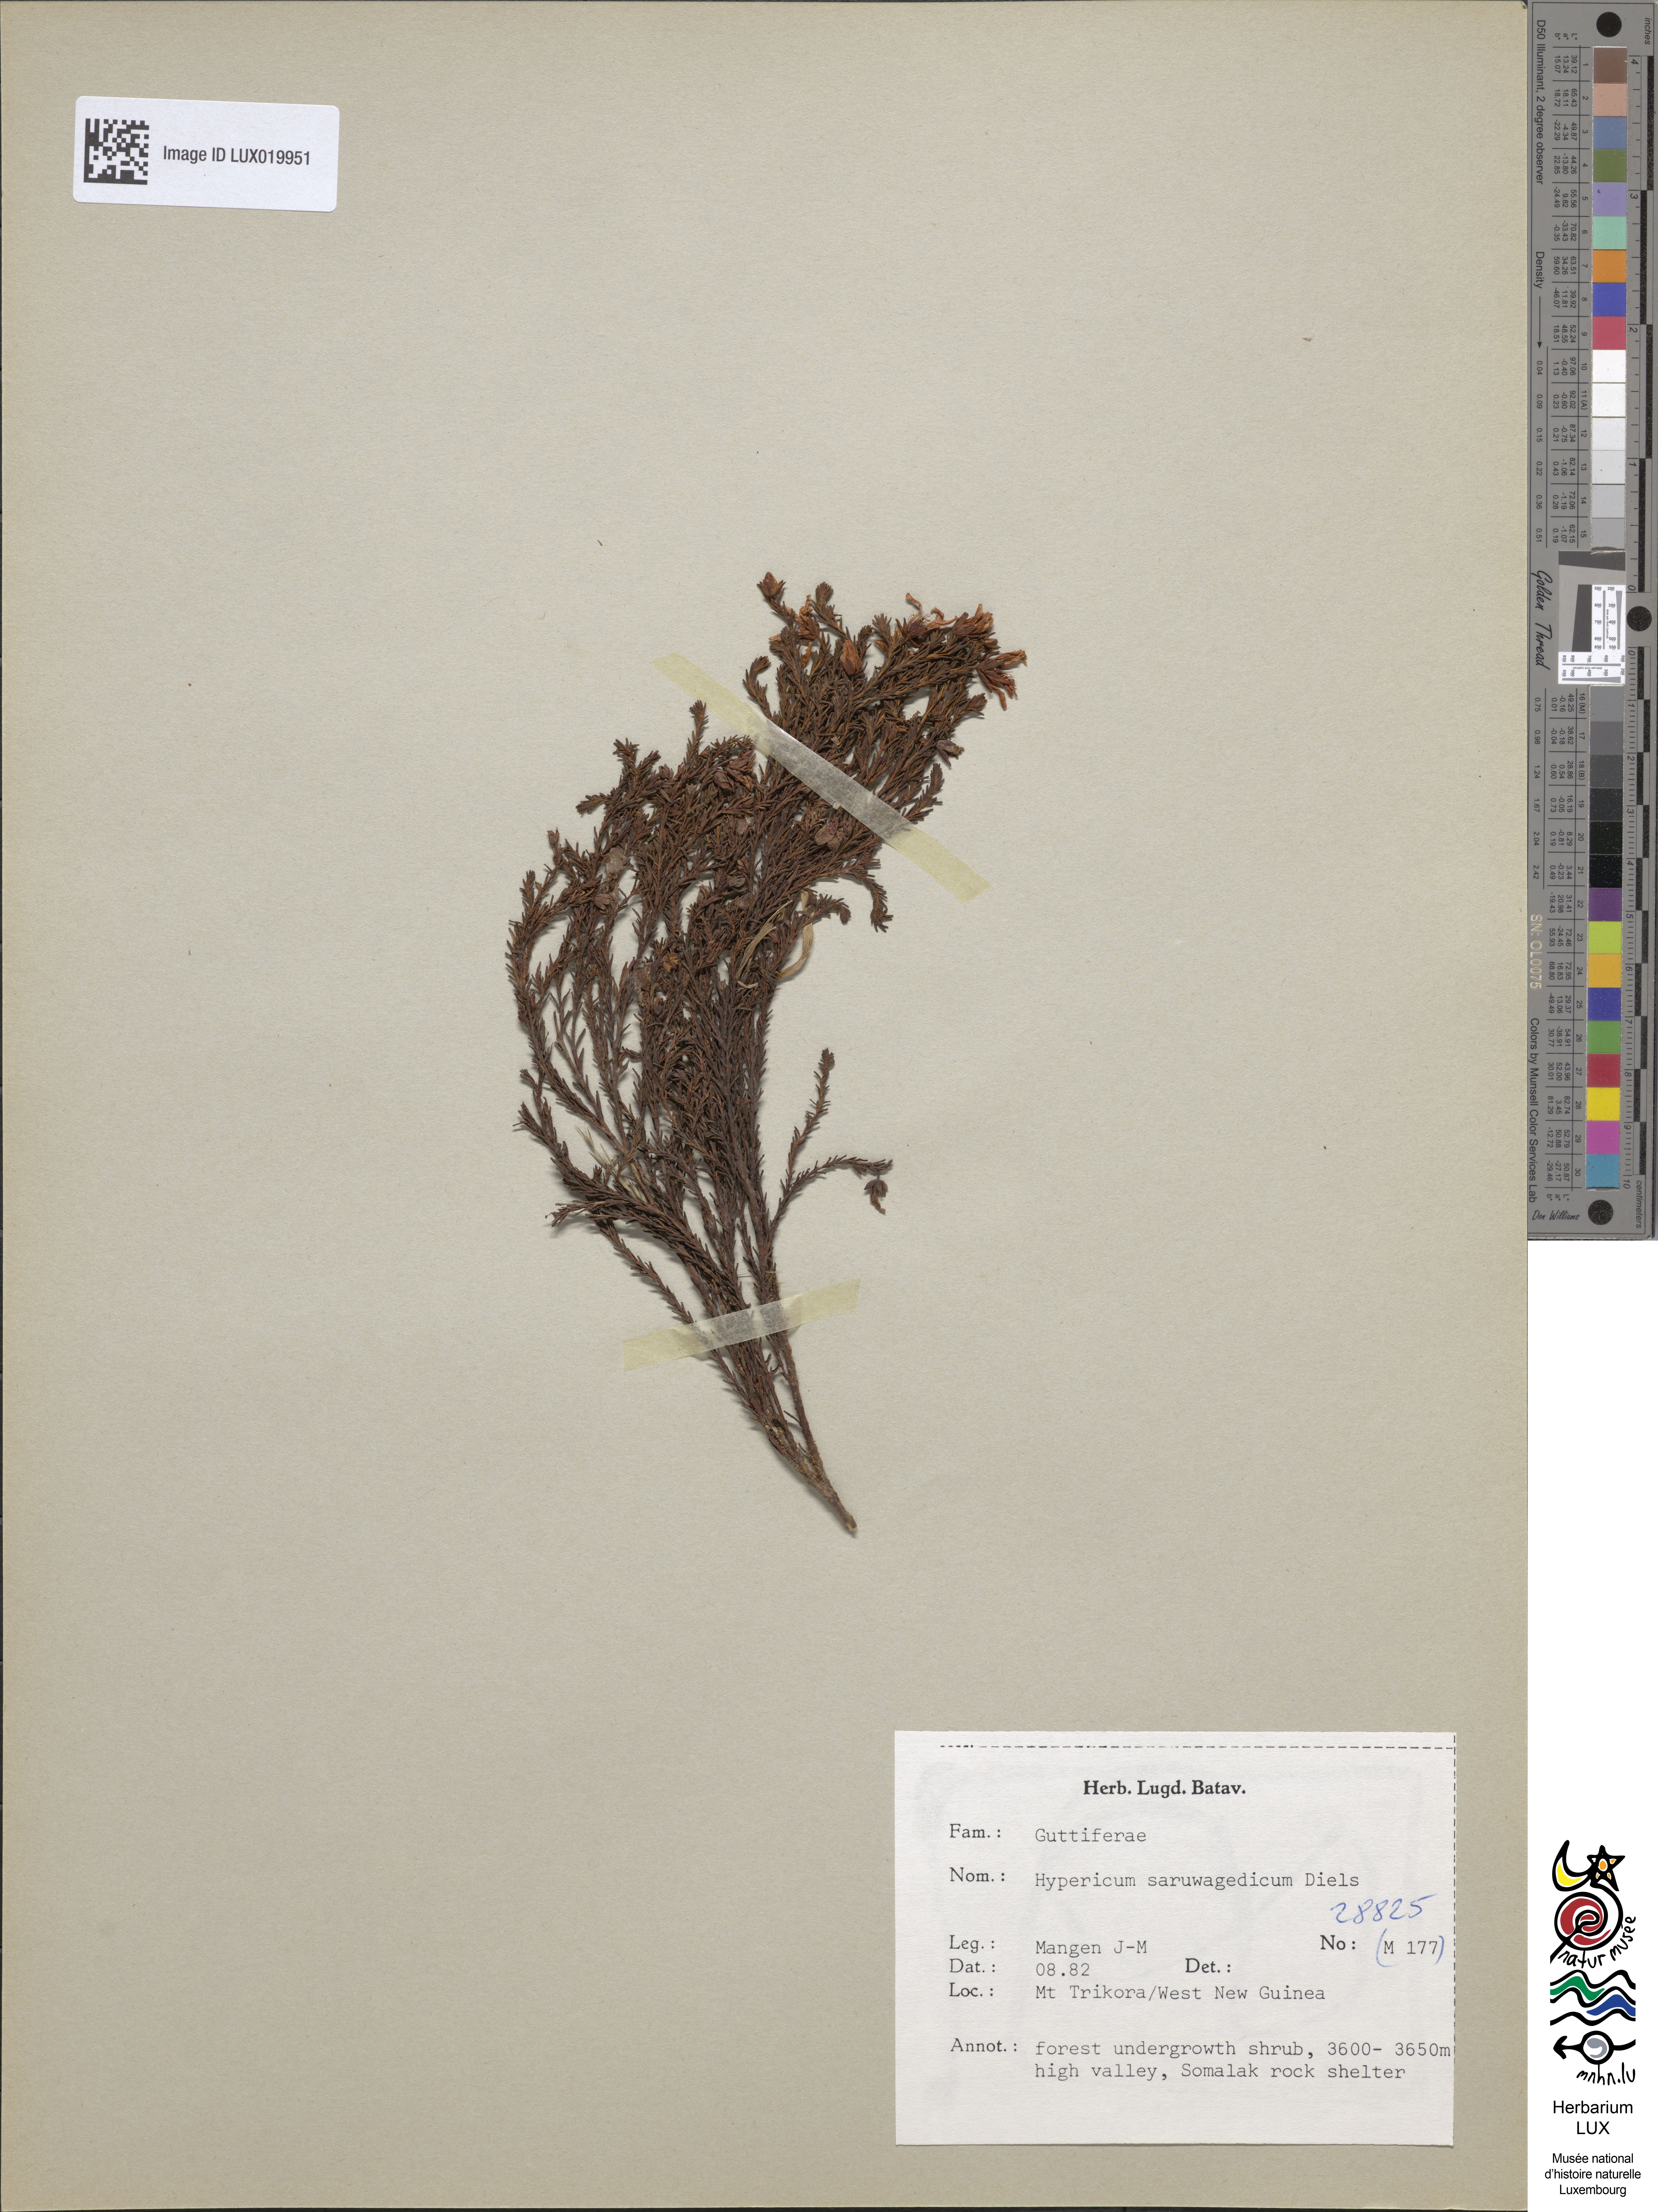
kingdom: Plantae
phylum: Tracheophyta
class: Magnoliopsida
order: Malpighiales
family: Hypericaceae
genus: Hypericum
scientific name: Hypericum saruwagedicum
